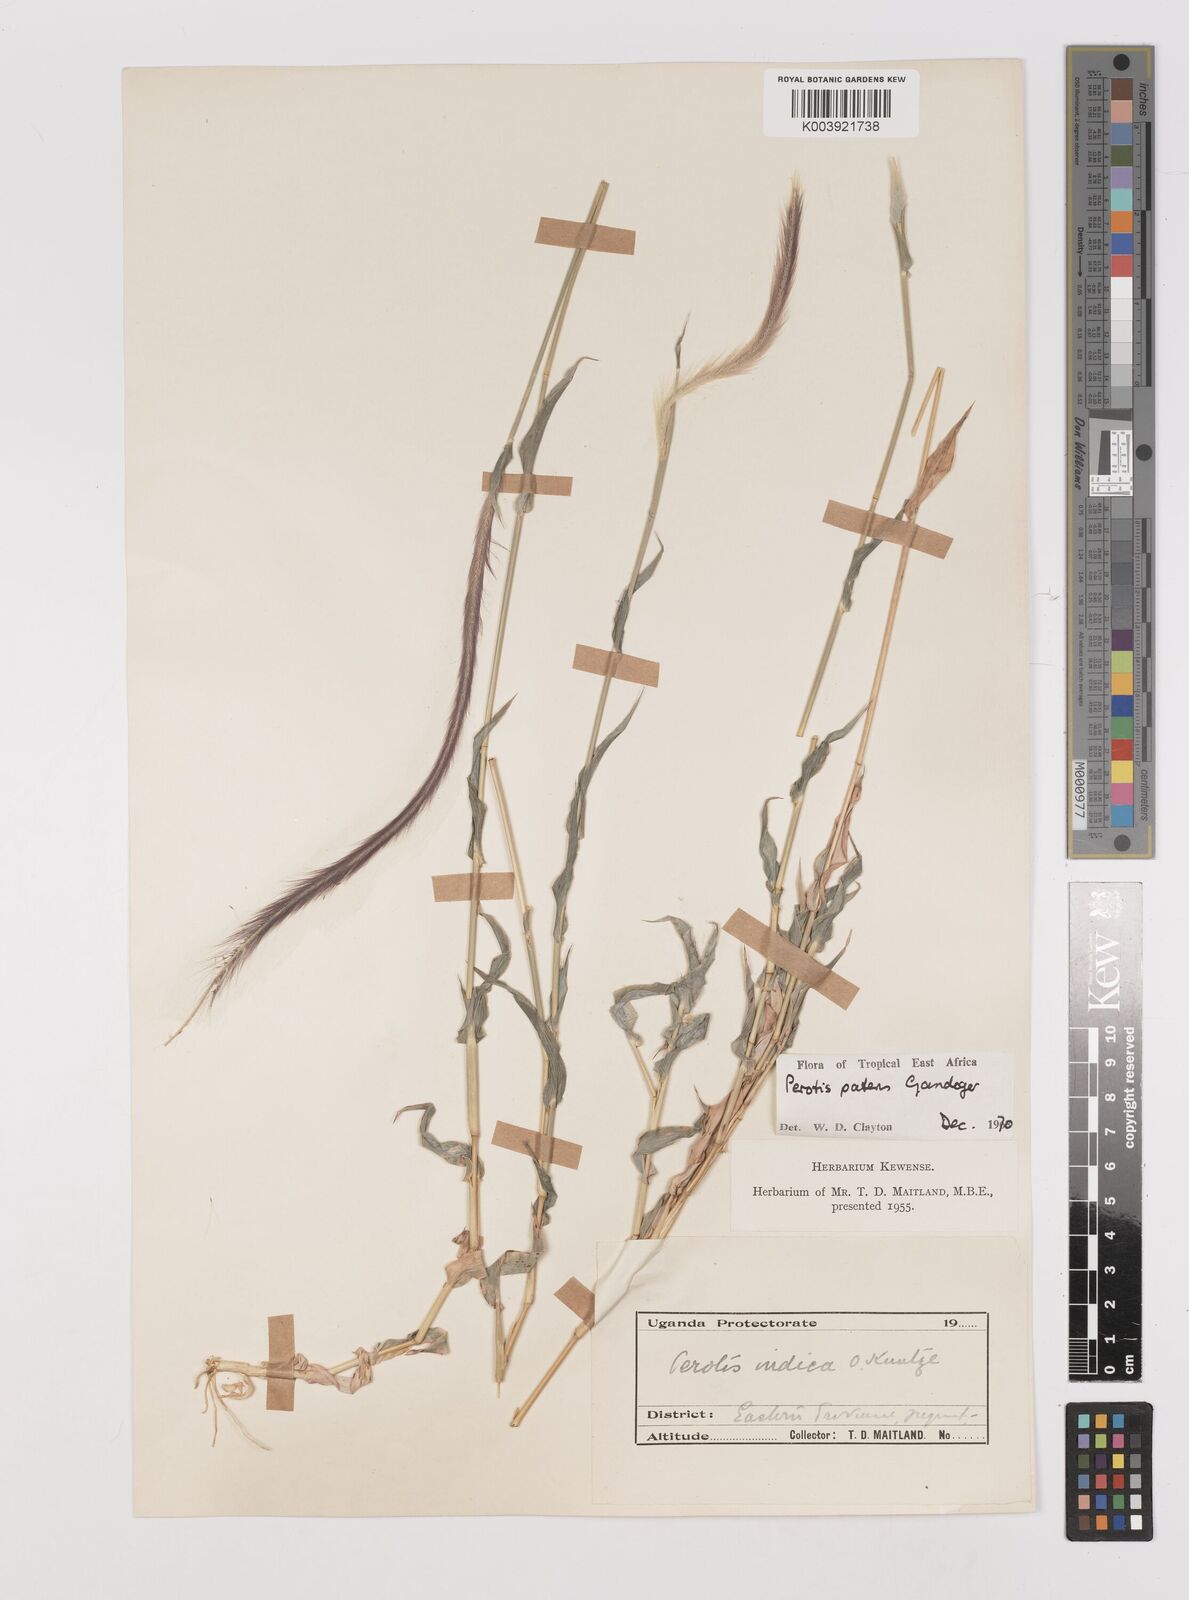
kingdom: Plantae
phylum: Tracheophyta
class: Liliopsida
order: Poales
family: Poaceae
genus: Perotis
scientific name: Perotis patens
